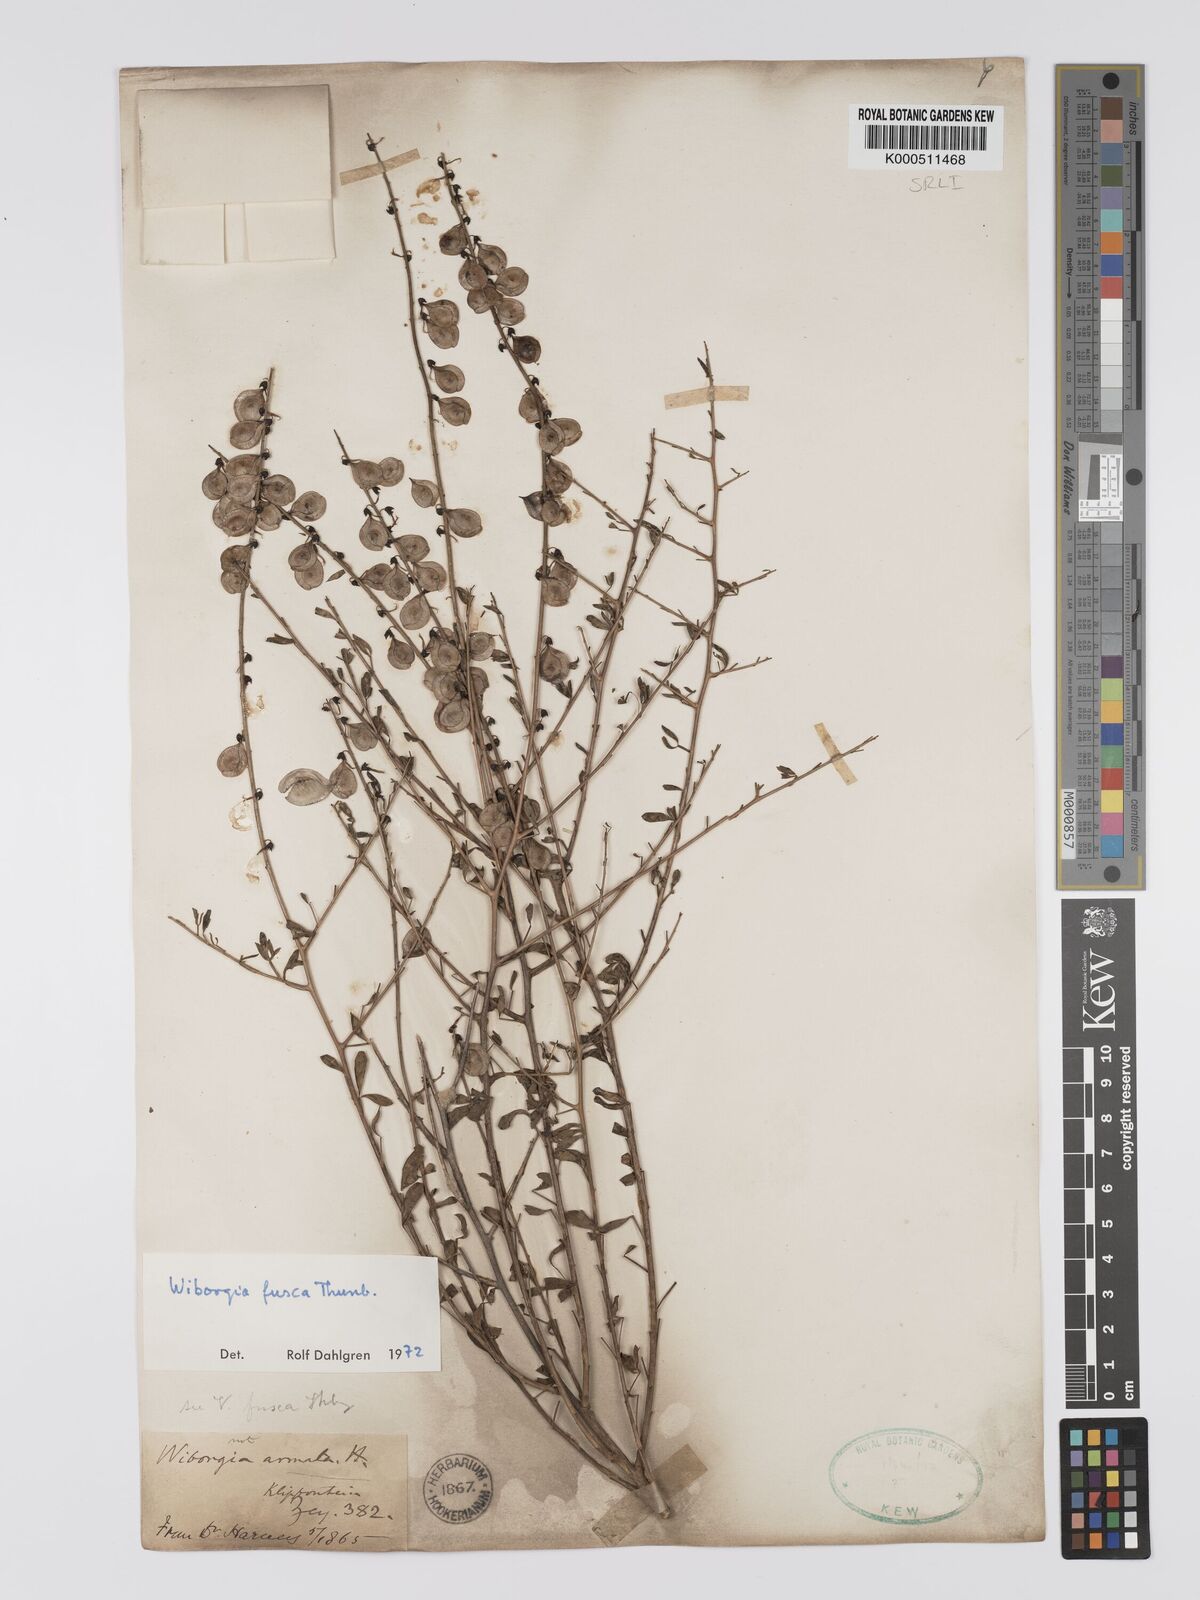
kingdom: Plantae
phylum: Tracheophyta
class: Magnoliopsida
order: Fabales
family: Fabaceae
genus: Wiborgia
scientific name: Wiborgia fusca
